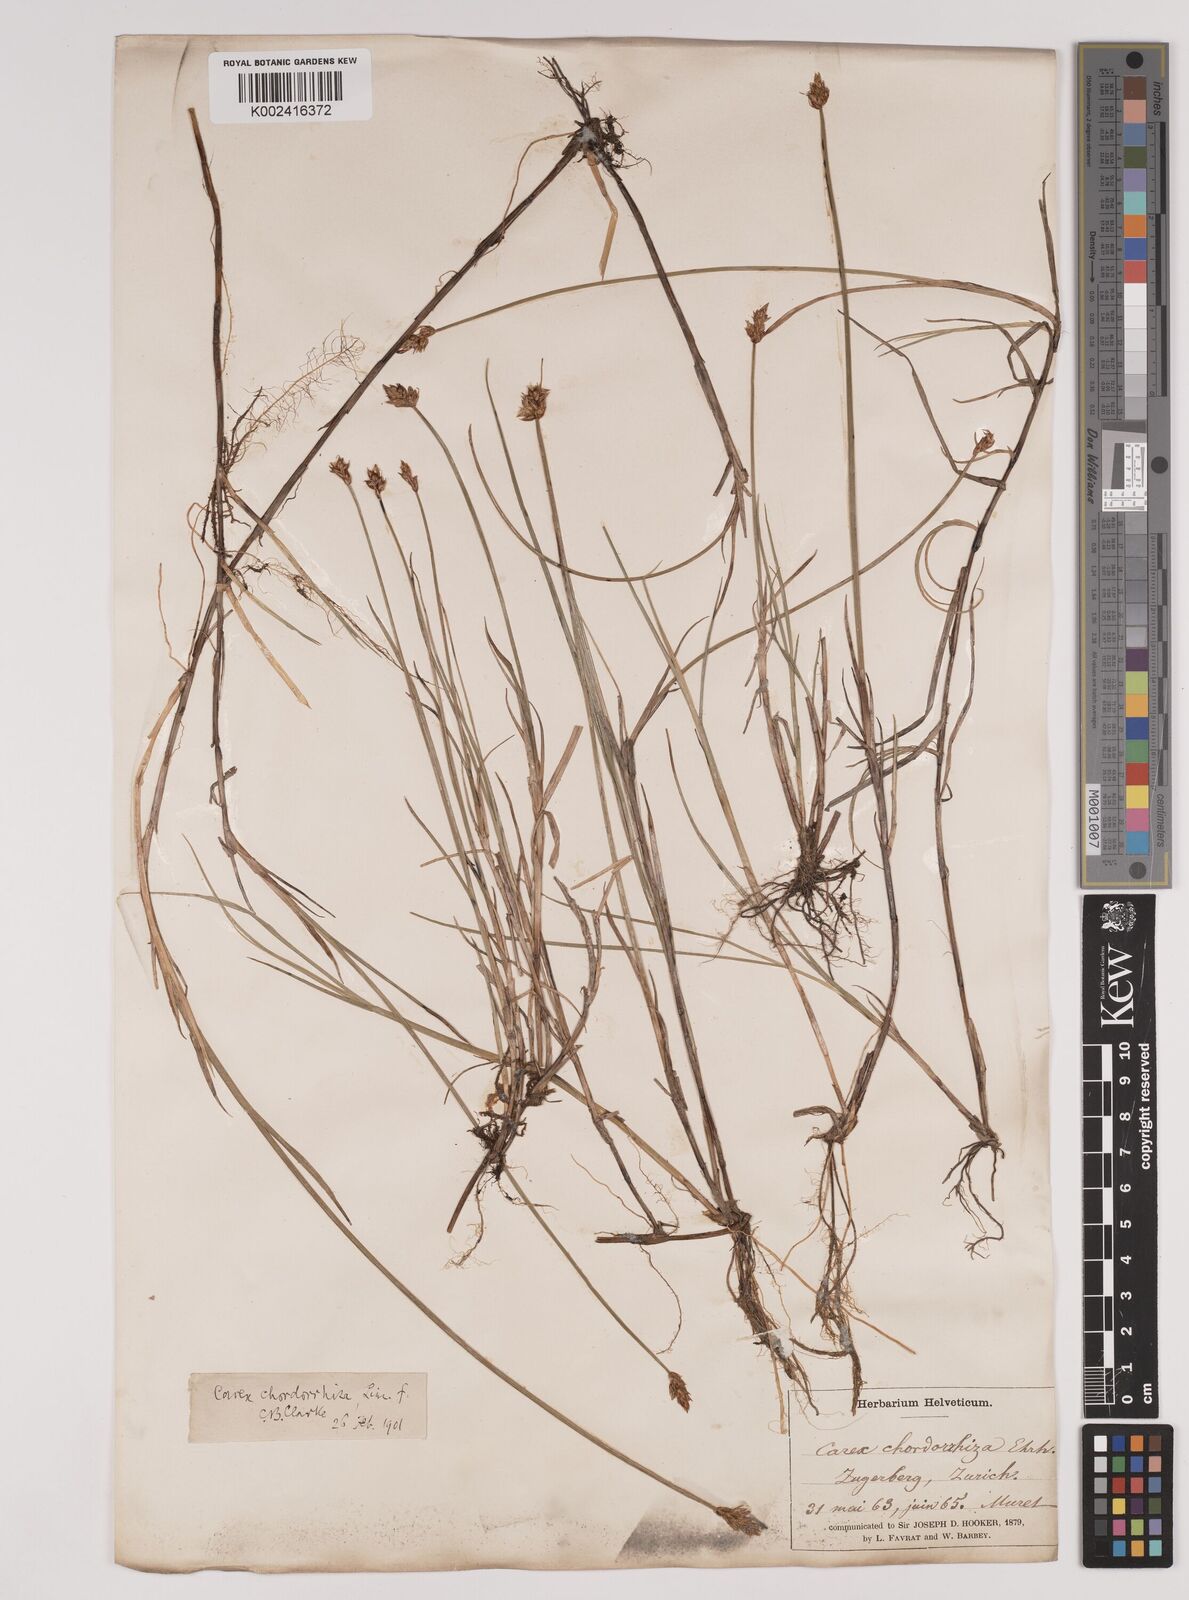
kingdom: Plantae
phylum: Tracheophyta
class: Liliopsida
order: Poales
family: Cyperaceae
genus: Carex
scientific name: Carex chordorrhiza
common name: String sedge
